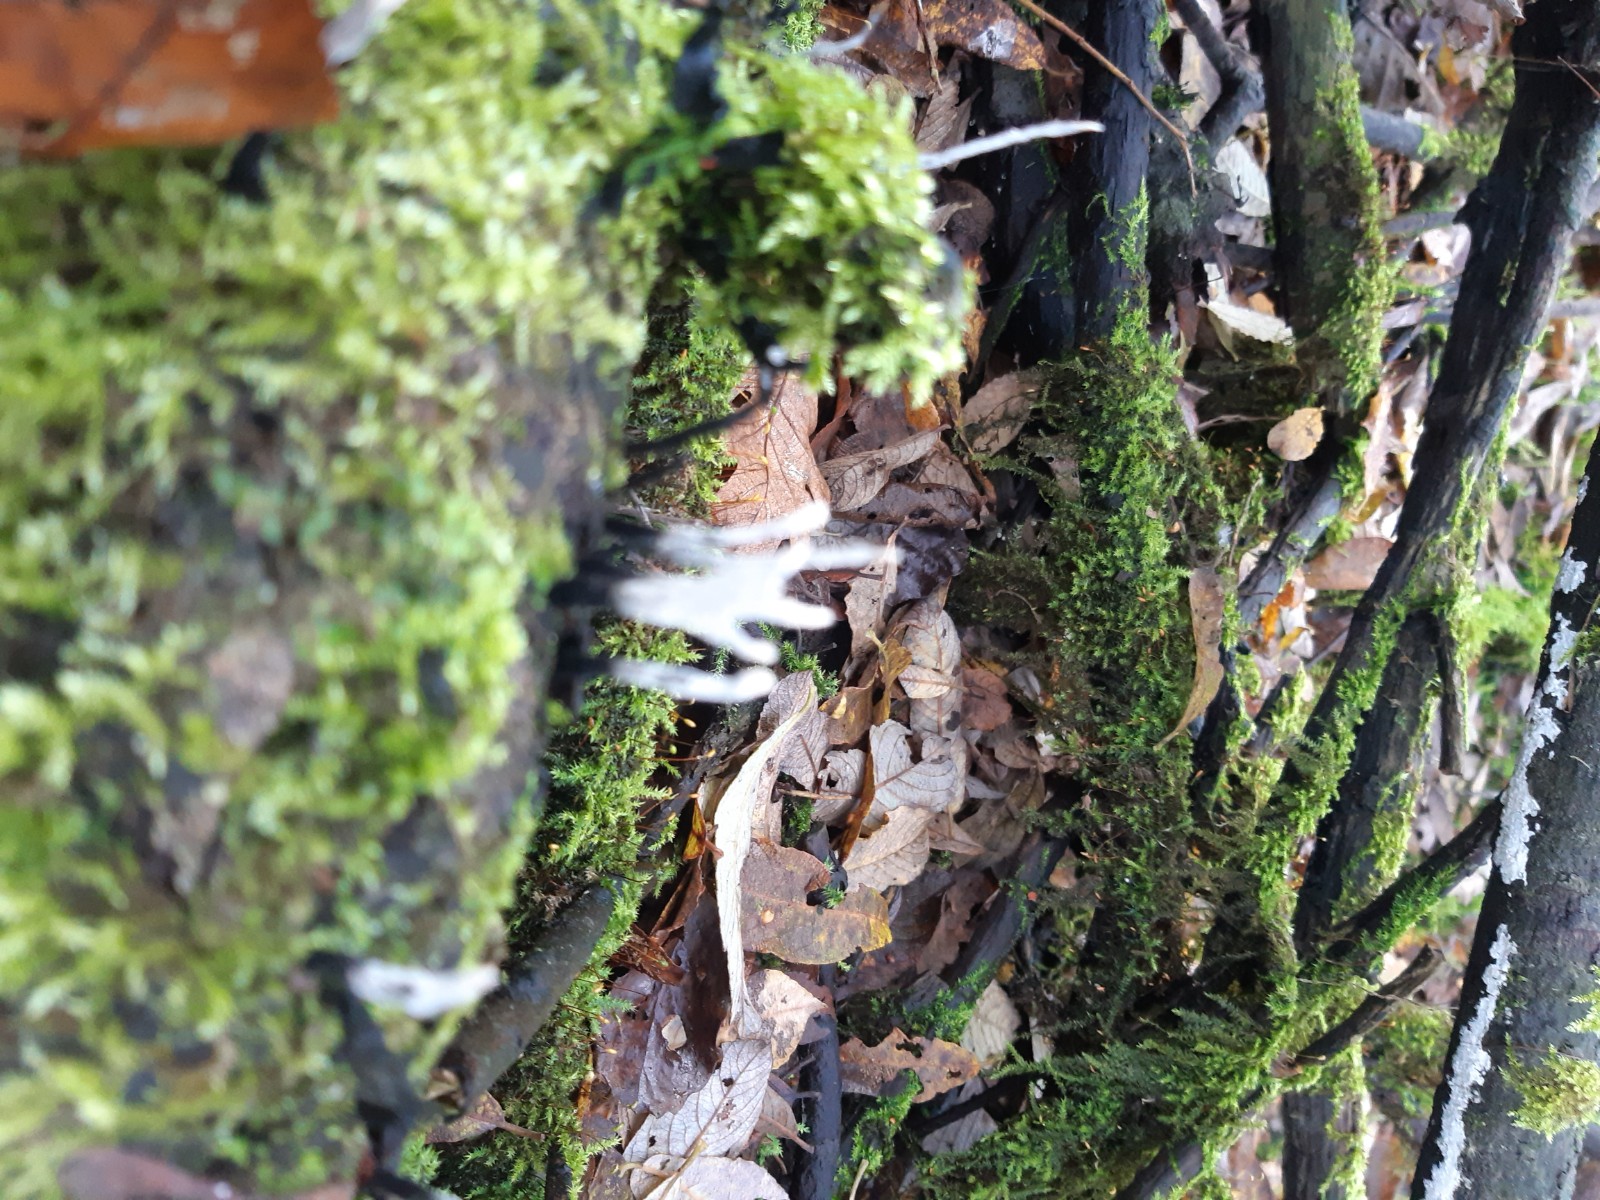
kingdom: Fungi
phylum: Ascomycota
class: Sordariomycetes
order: Xylariales
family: Xylariaceae
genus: Xylaria
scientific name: Xylaria hypoxylon
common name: grenet stødsvamp
